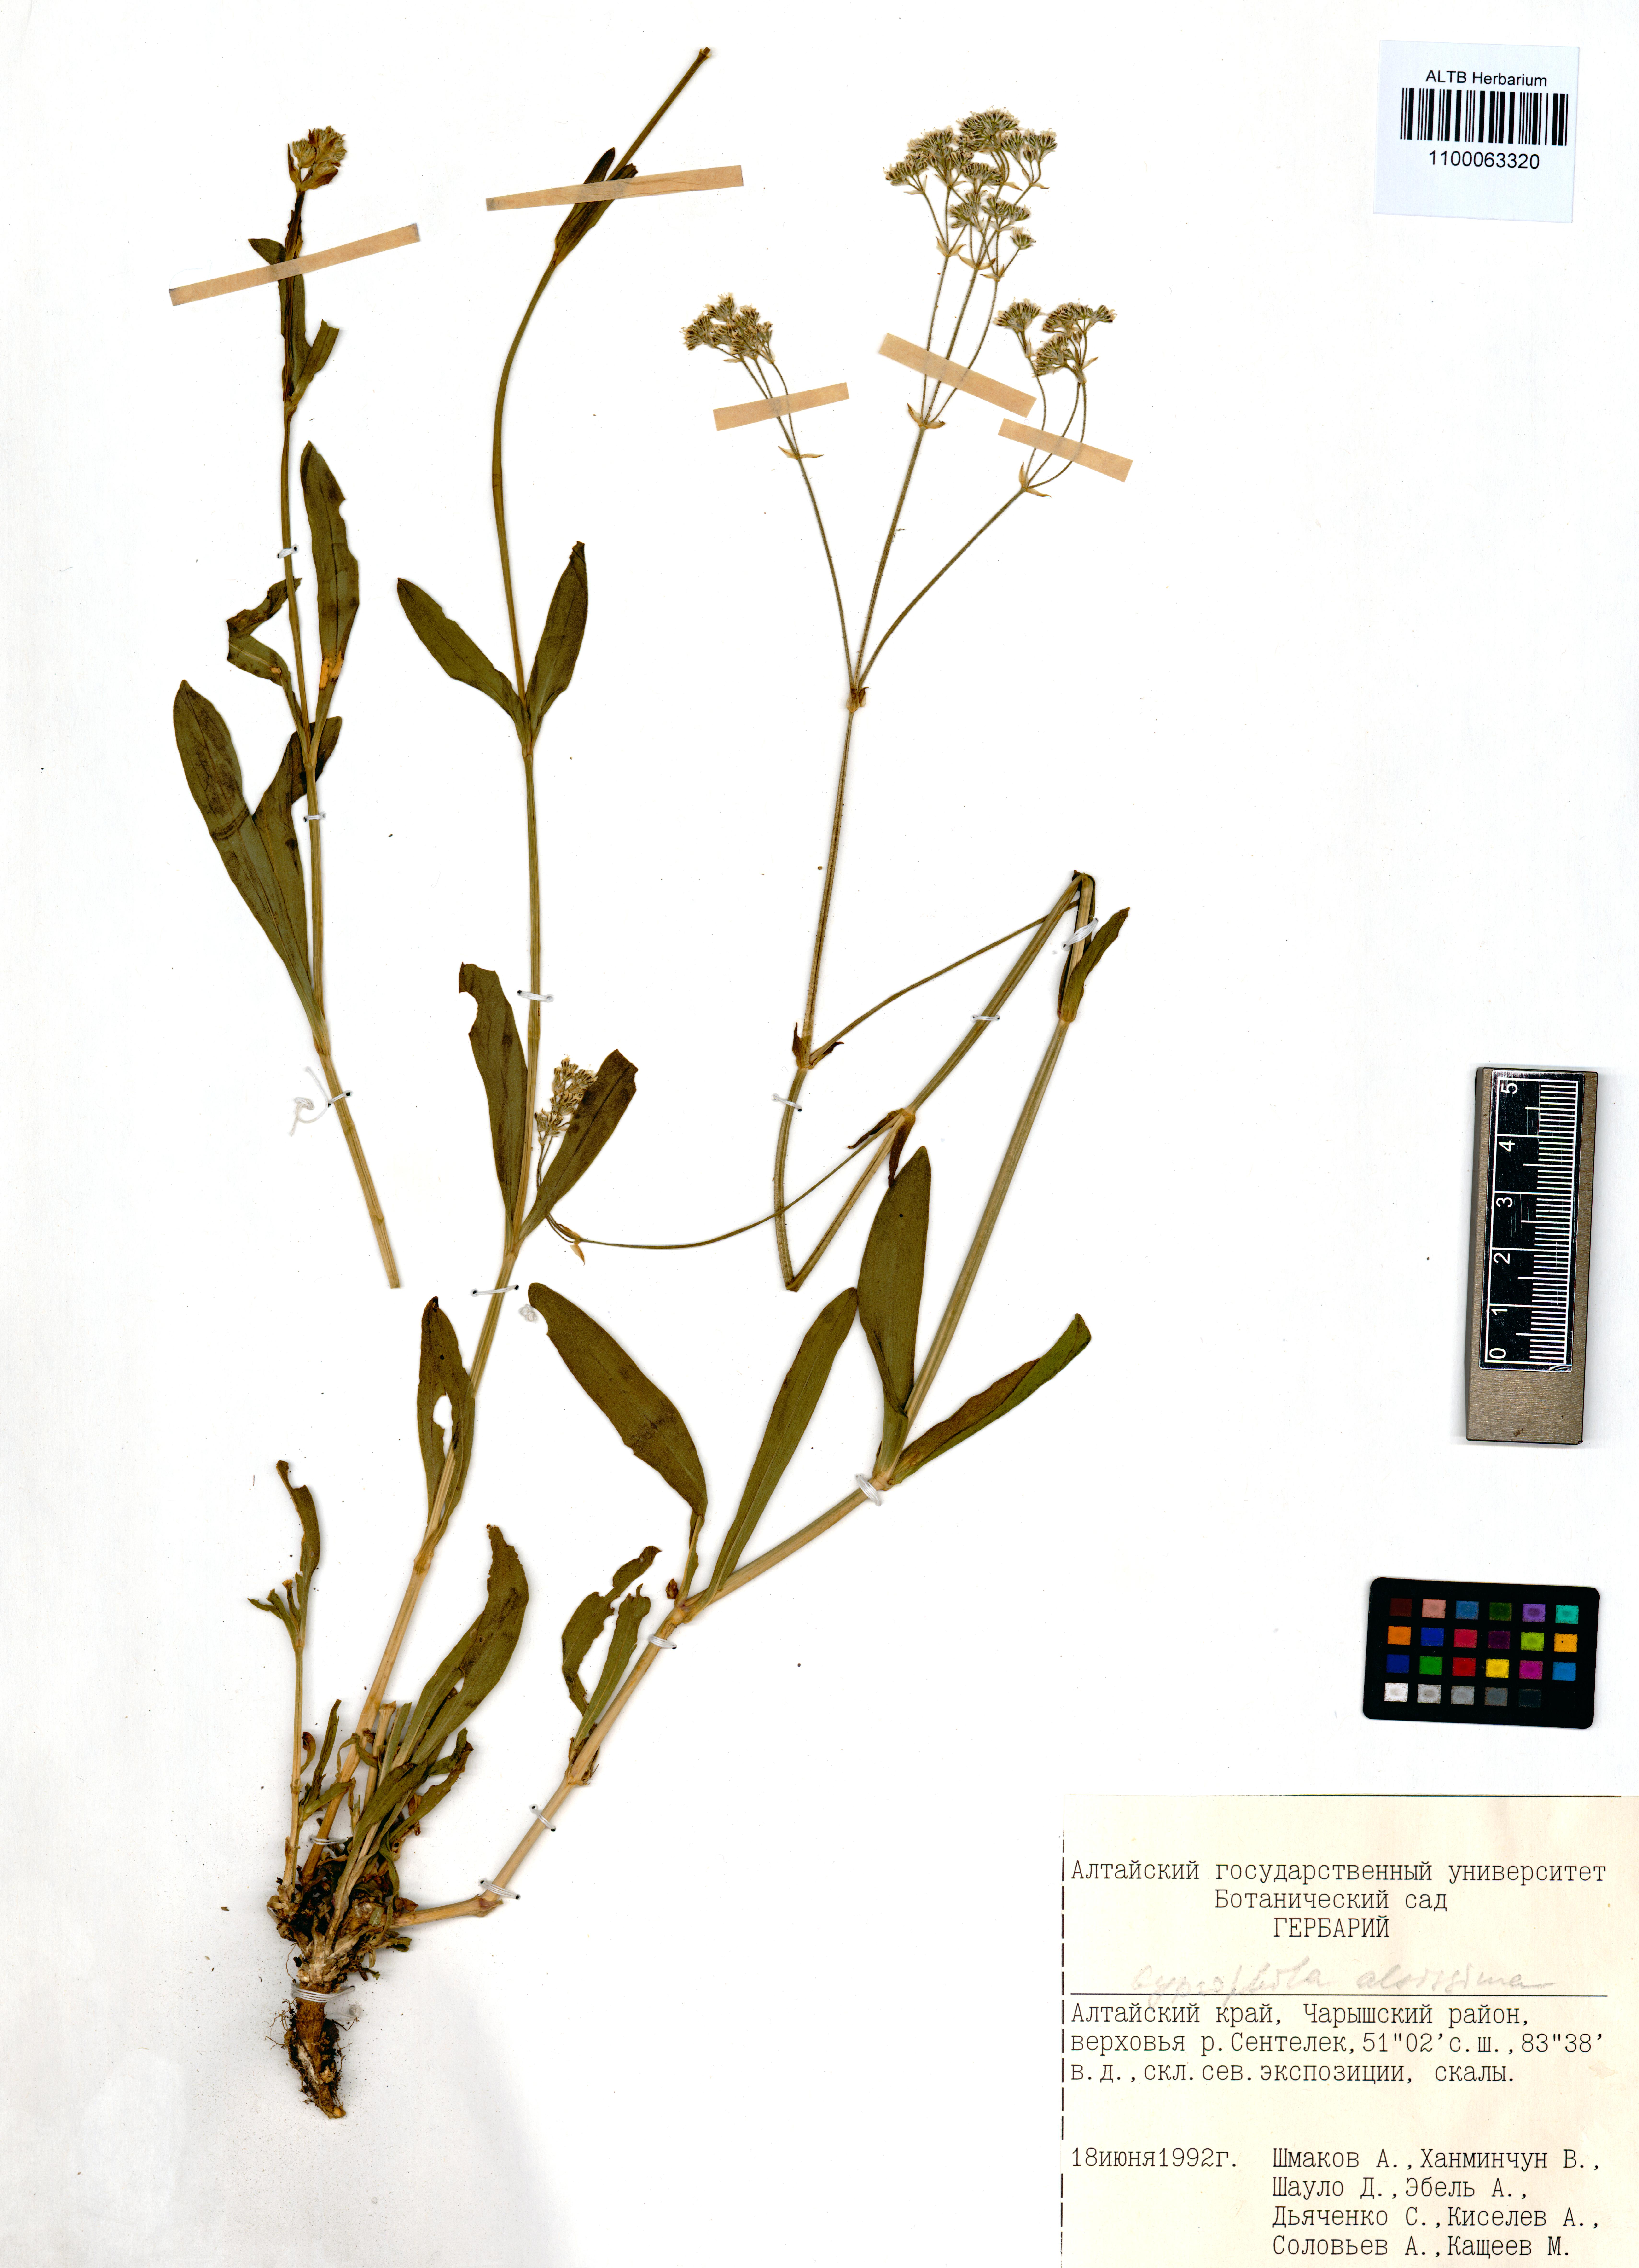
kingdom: Plantae
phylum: Tracheophyta
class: Magnoliopsida
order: Caryophyllales
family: Caryophyllaceae
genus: Gypsophila
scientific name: Gypsophila altissima
